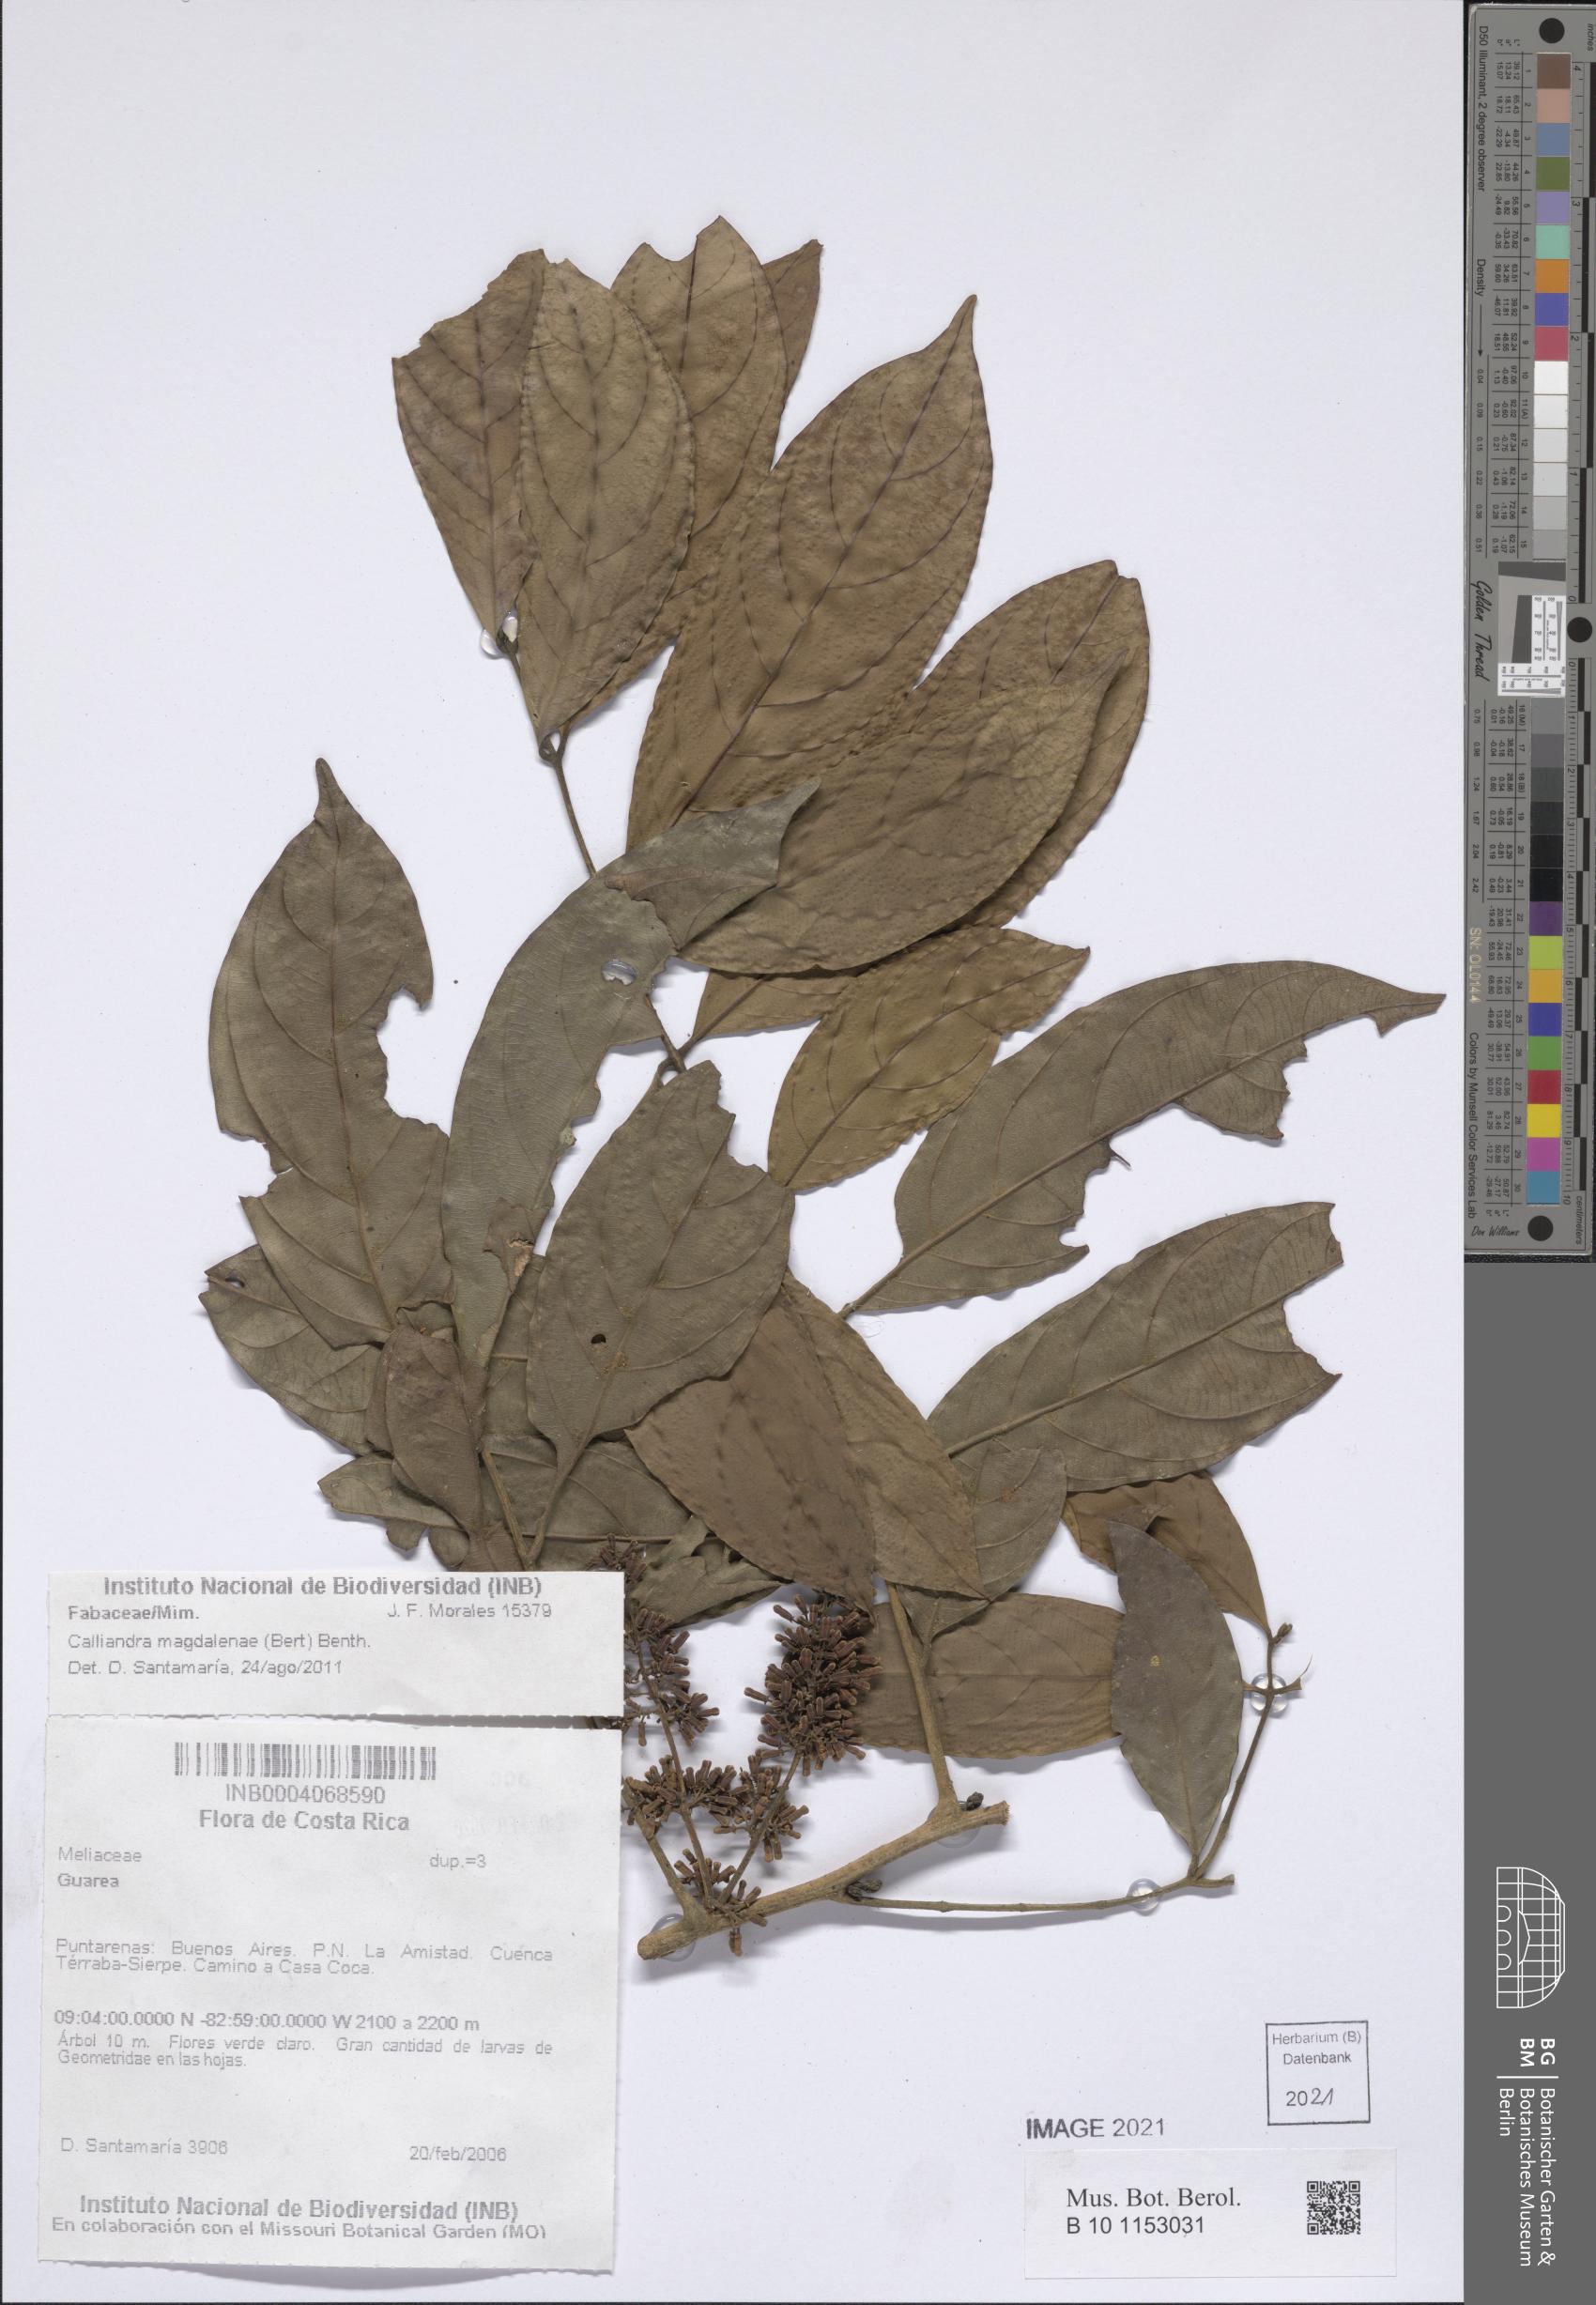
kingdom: Plantae
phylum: Tracheophyta
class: Magnoliopsida
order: Sapindales
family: Meliaceae
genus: Guarea
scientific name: Guarea
